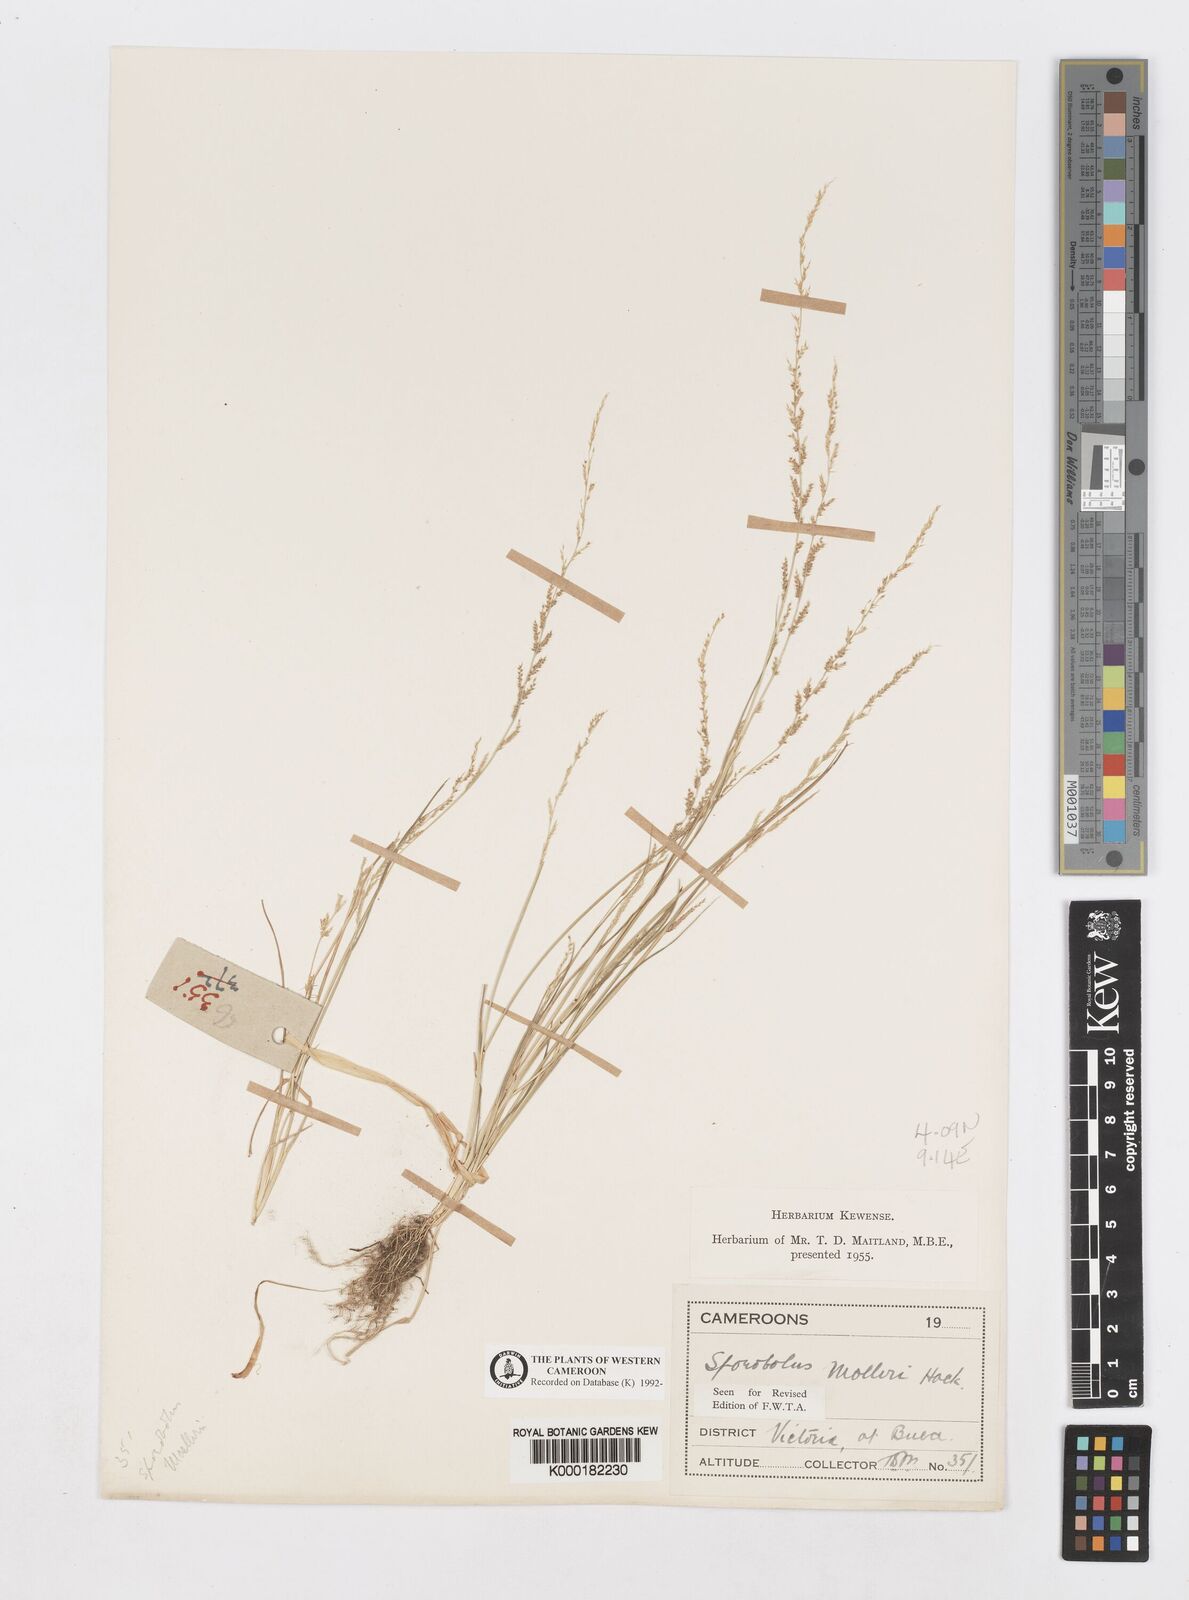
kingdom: Plantae
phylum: Tracheophyta
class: Liliopsida
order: Poales
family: Poaceae
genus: Sporobolus
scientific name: Sporobolus molleri
